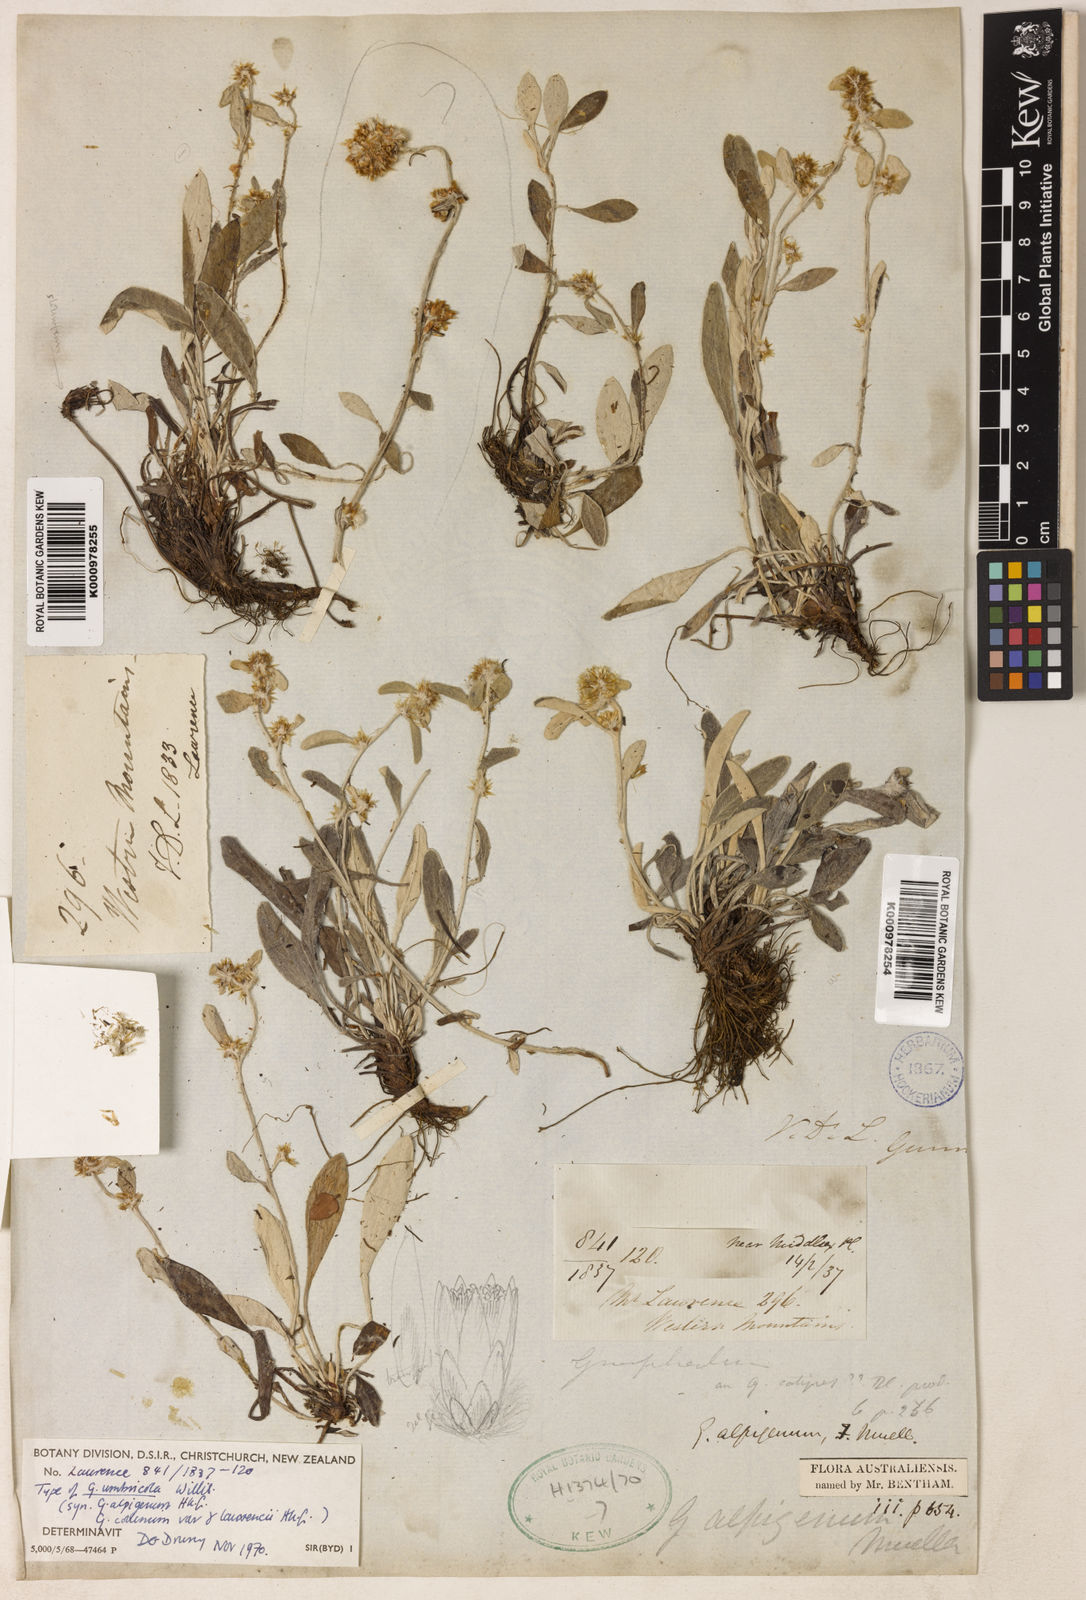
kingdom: Plantae
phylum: Tracheophyta
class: Magnoliopsida
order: Asterales
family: Asteraceae
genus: Euchiton
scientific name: Euchiton umbricola
